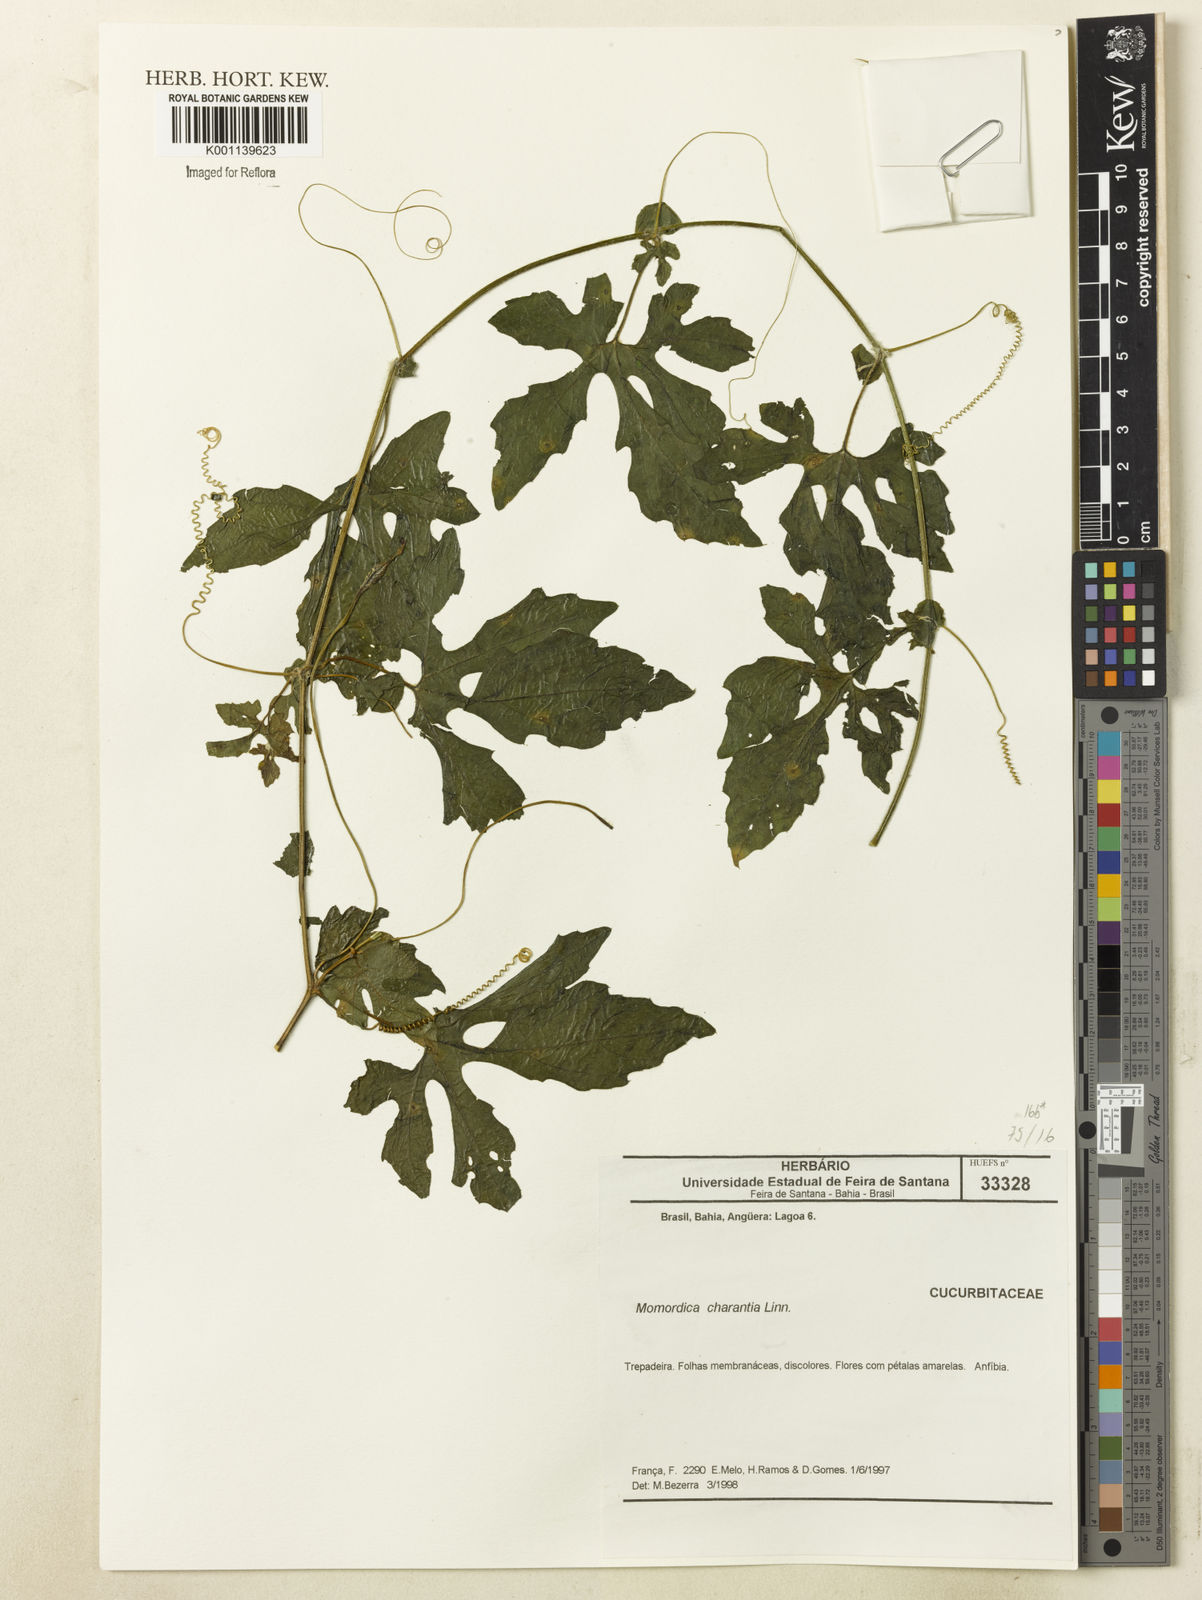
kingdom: Plantae
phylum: Tracheophyta
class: Magnoliopsida
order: Cucurbitales
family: Cucurbitaceae
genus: Momordica
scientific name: Momordica charantia
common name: Balsampear
